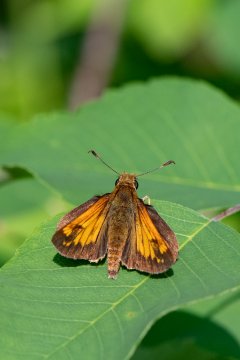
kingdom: Animalia
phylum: Arthropoda
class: Insecta
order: Lepidoptera
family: Hesperiidae
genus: Lon
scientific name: Lon hobomok
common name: Hobomok Skipper
